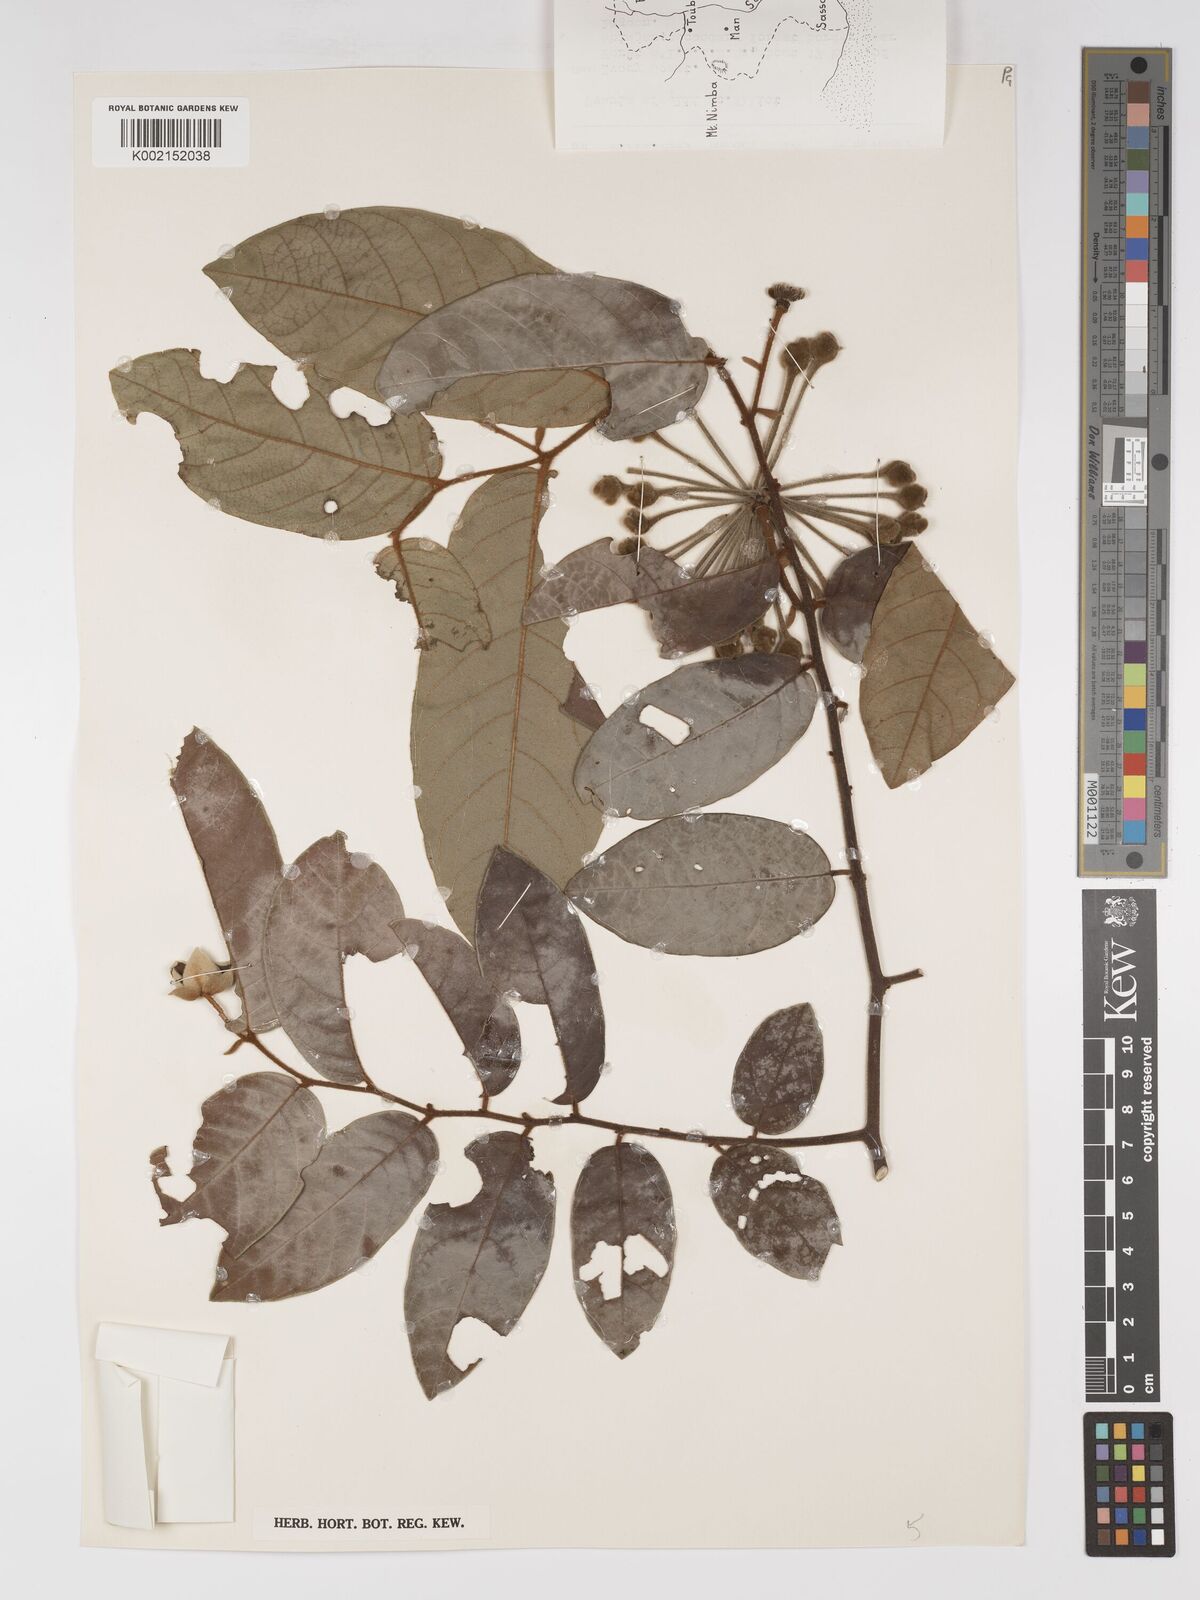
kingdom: Plantae
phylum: Tracheophyta
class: Magnoliopsida
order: Magnoliales
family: Annonaceae
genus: Uvaria
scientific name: Uvaria afzelii
